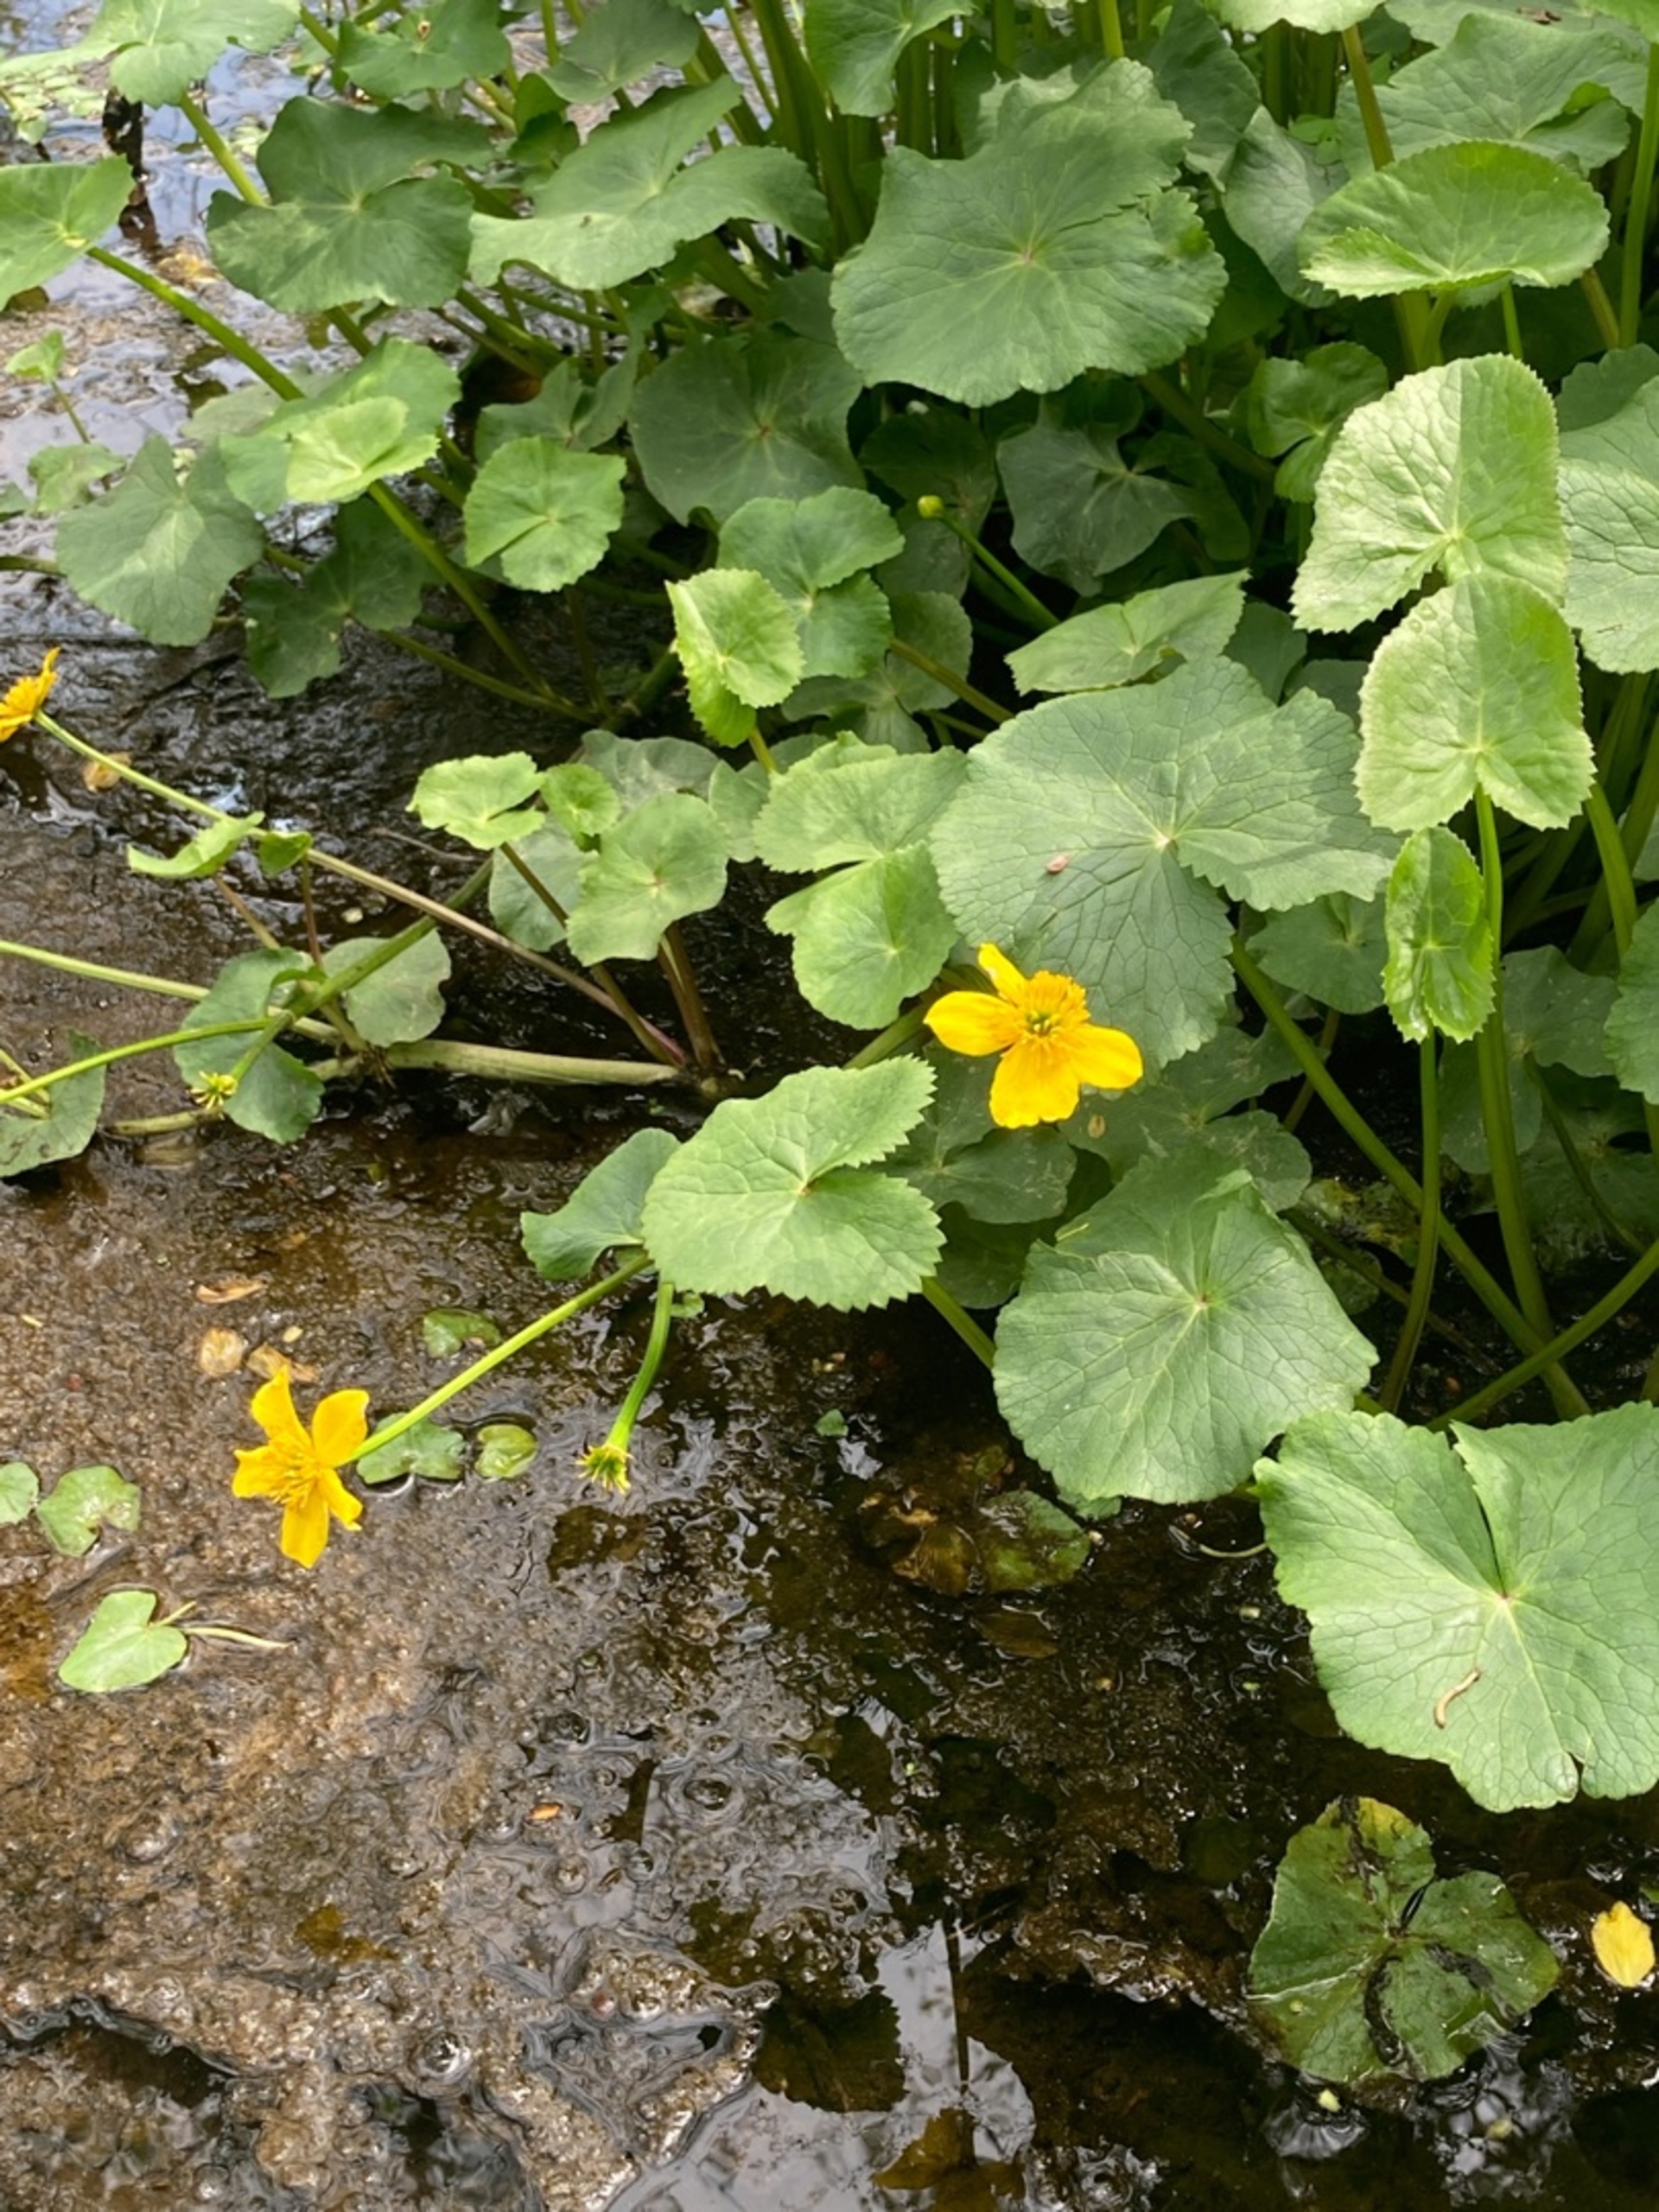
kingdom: Plantae
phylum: Tracheophyta
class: Magnoliopsida
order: Ranunculales
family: Ranunculaceae
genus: Caltha
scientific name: Caltha palustris
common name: Eng-kabbeleje
